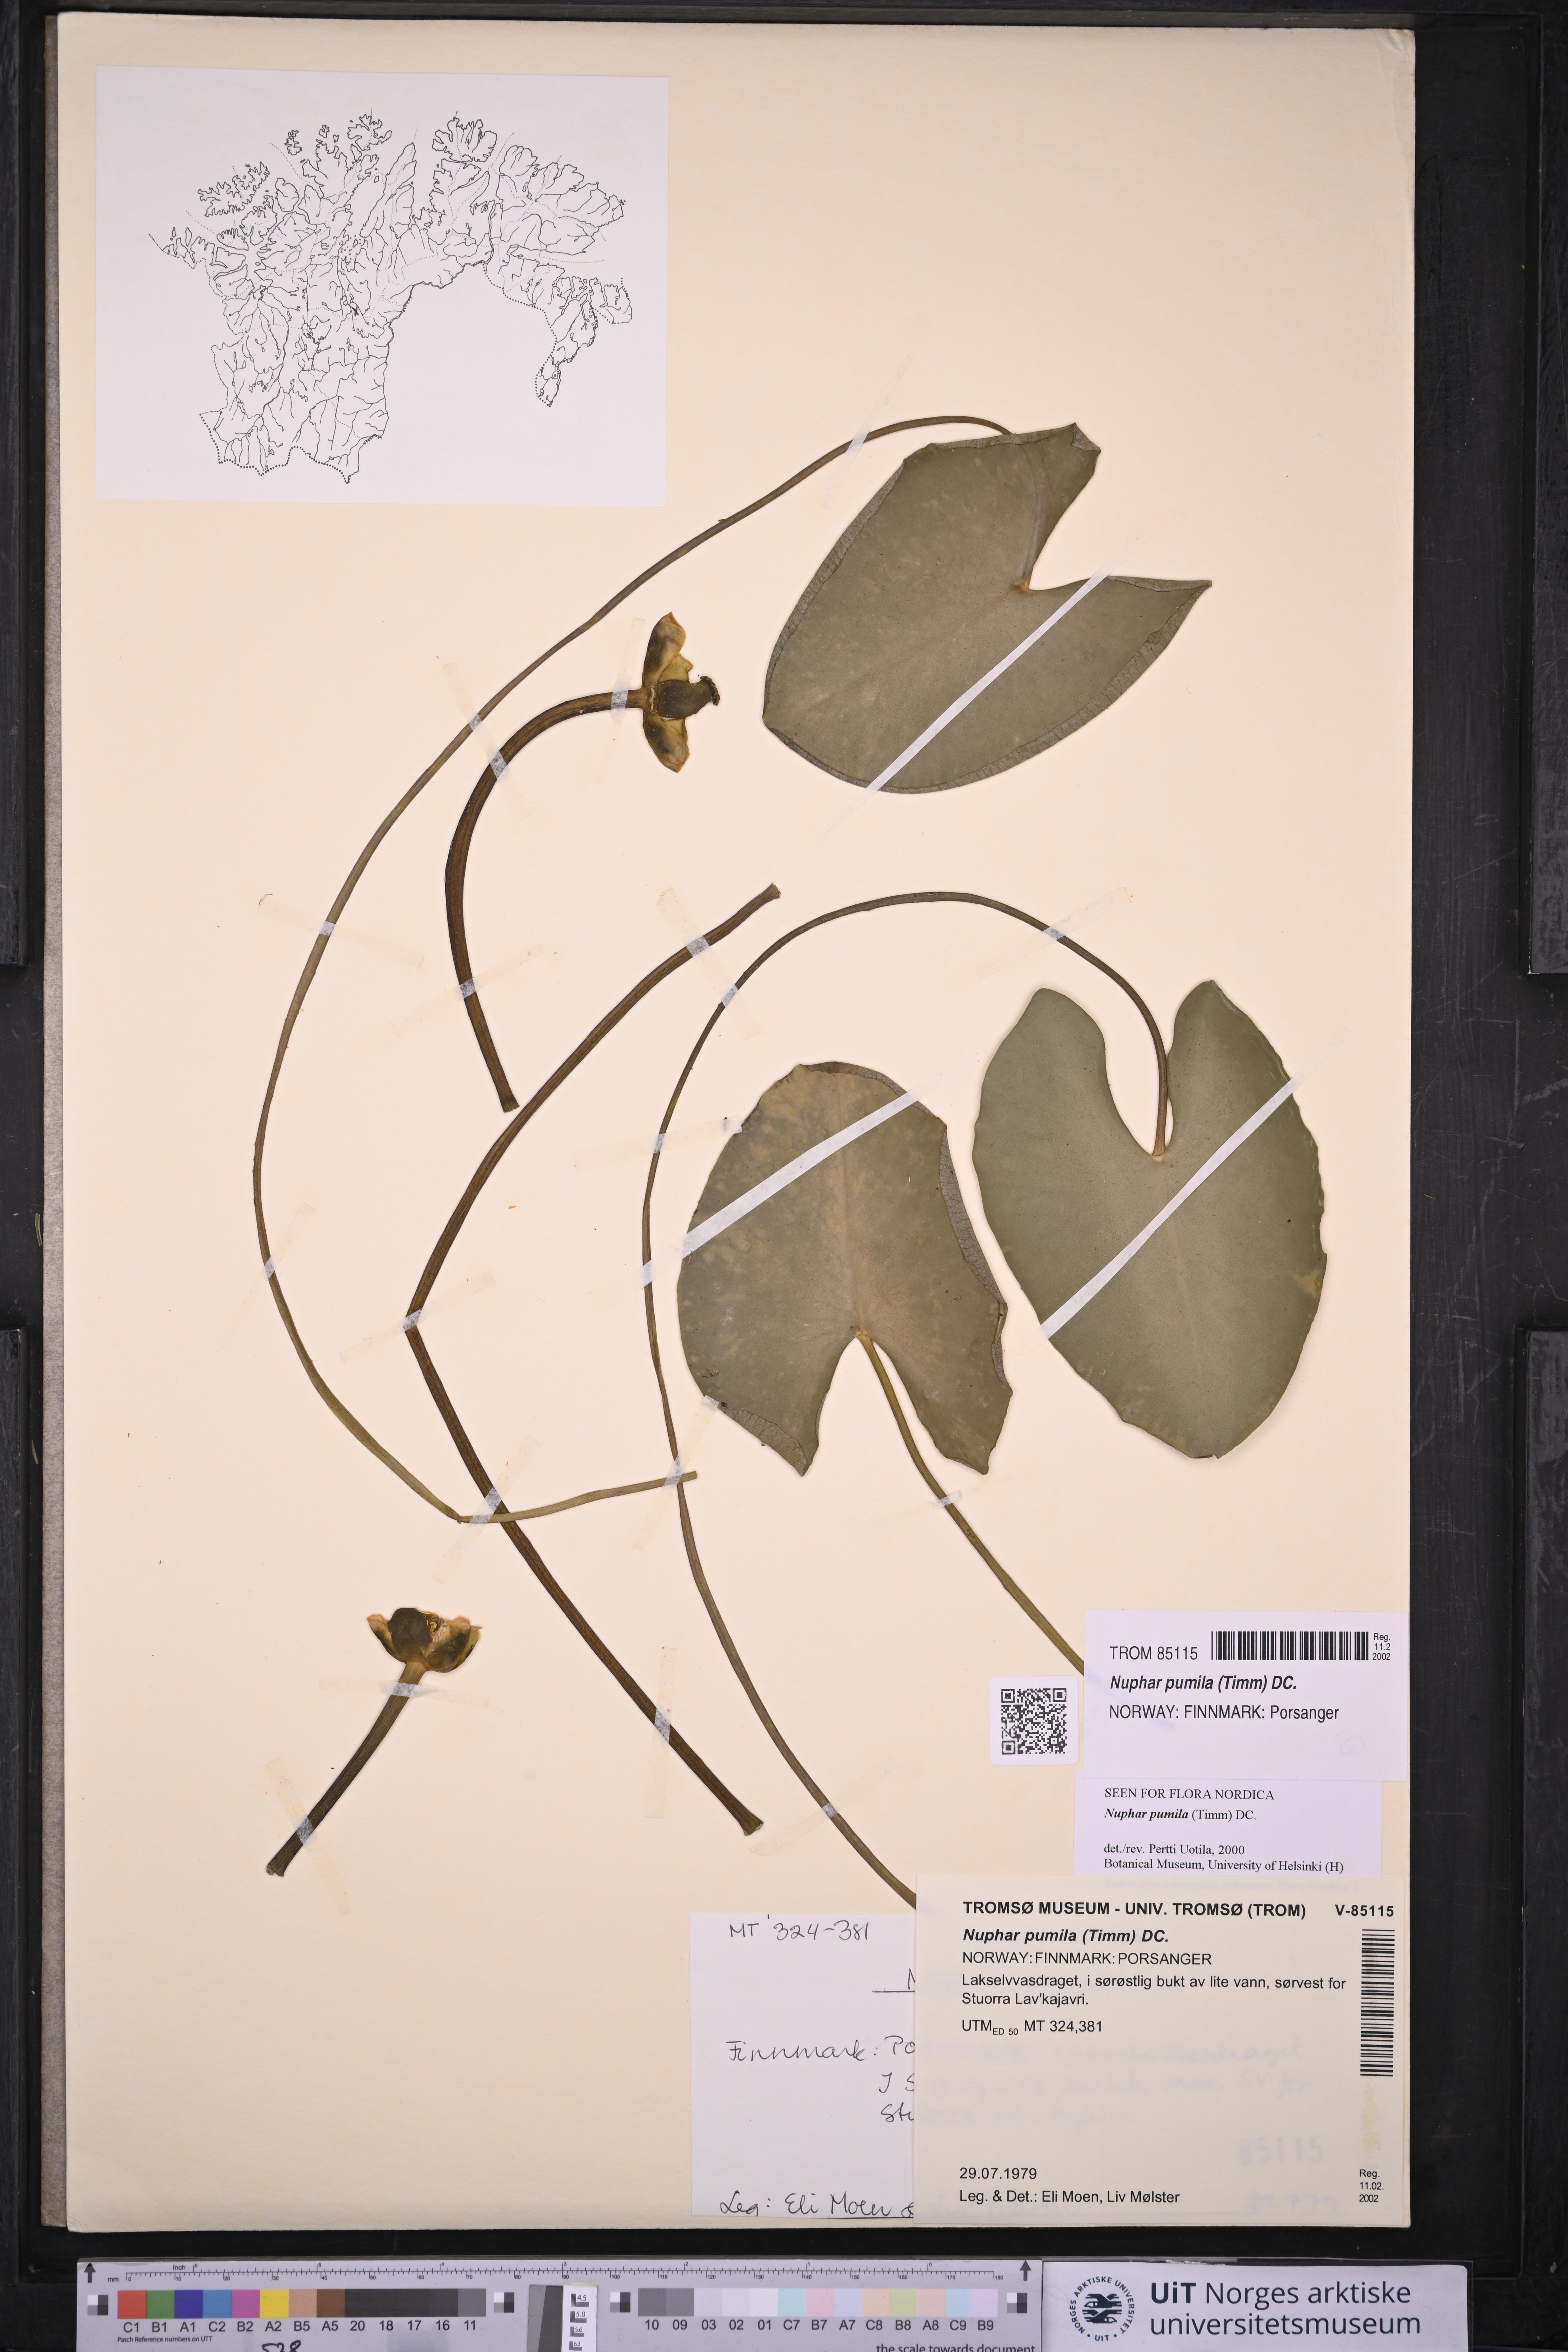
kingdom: Plantae
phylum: Tracheophyta
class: Magnoliopsida
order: Nymphaeales
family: Nymphaeaceae
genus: Nuphar
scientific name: Nuphar pumila
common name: Least water-lily
